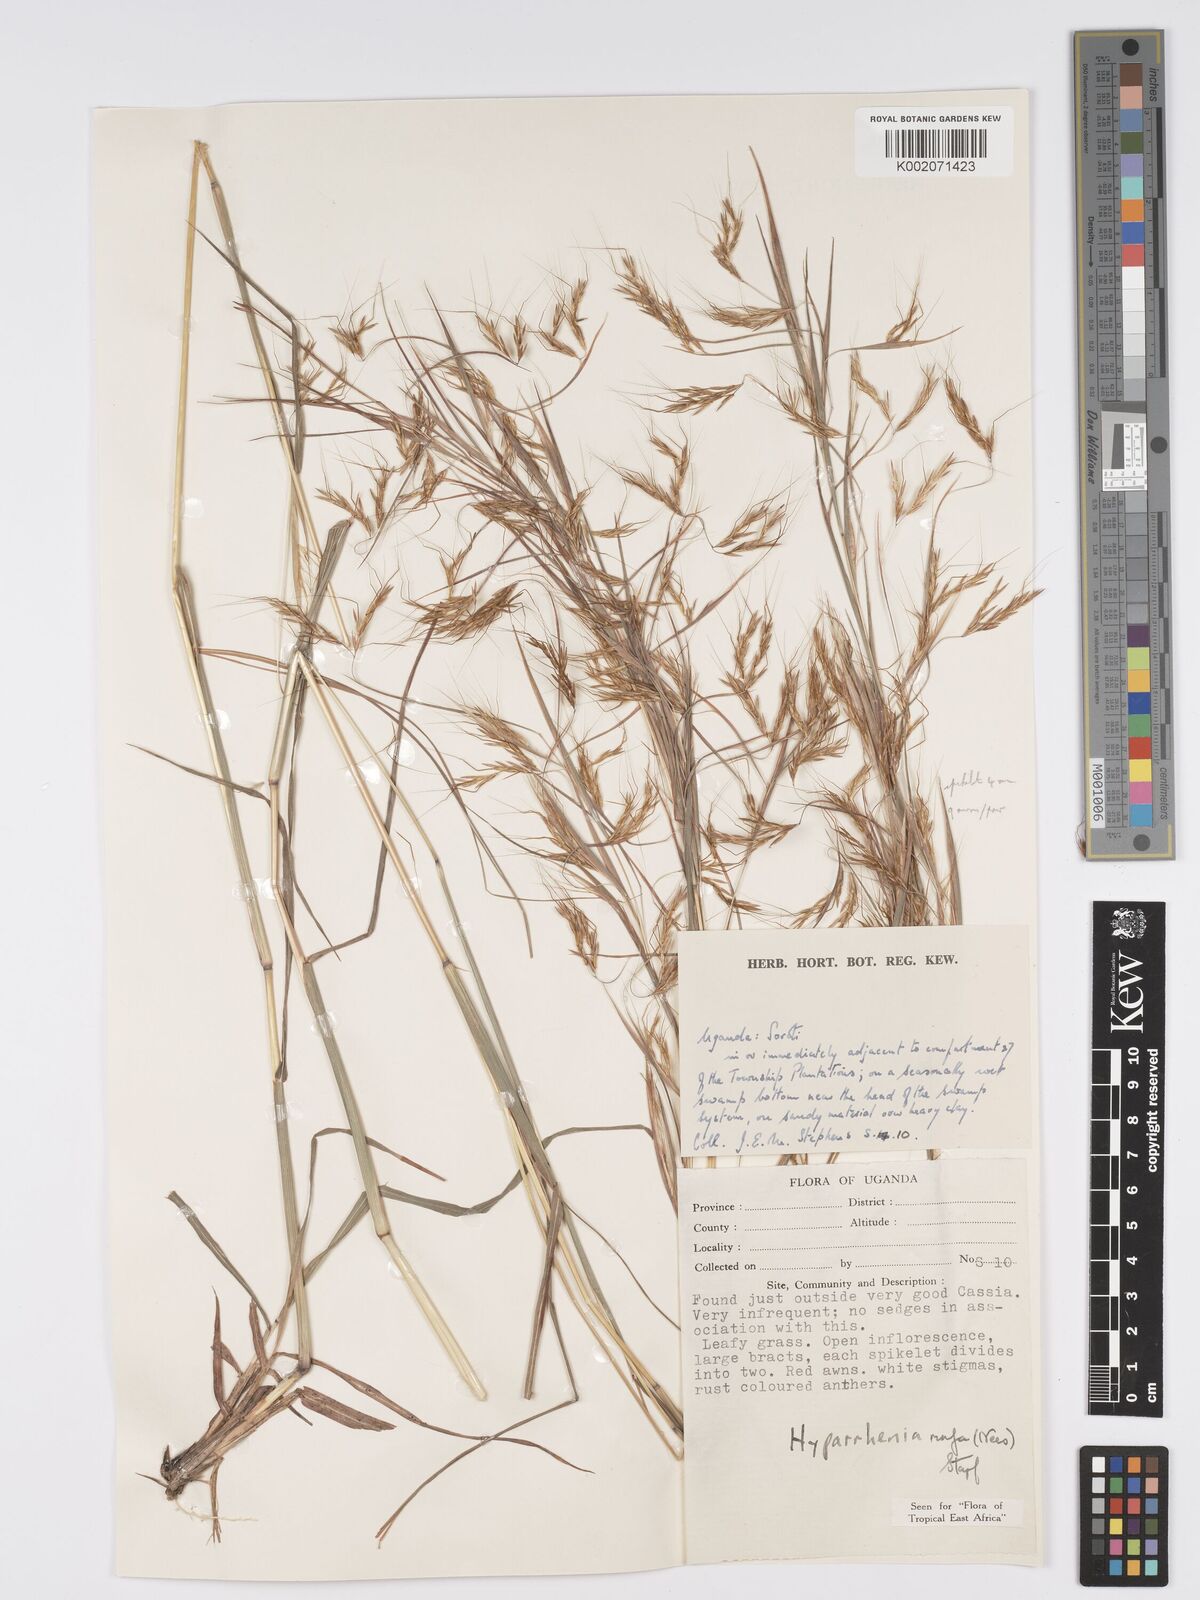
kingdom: Plantae
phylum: Tracheophyta
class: Liliopsida
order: Poales
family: Poaceae
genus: Hyparrhenia
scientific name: Hyparrhenia rufa
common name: Jaraguagrass
